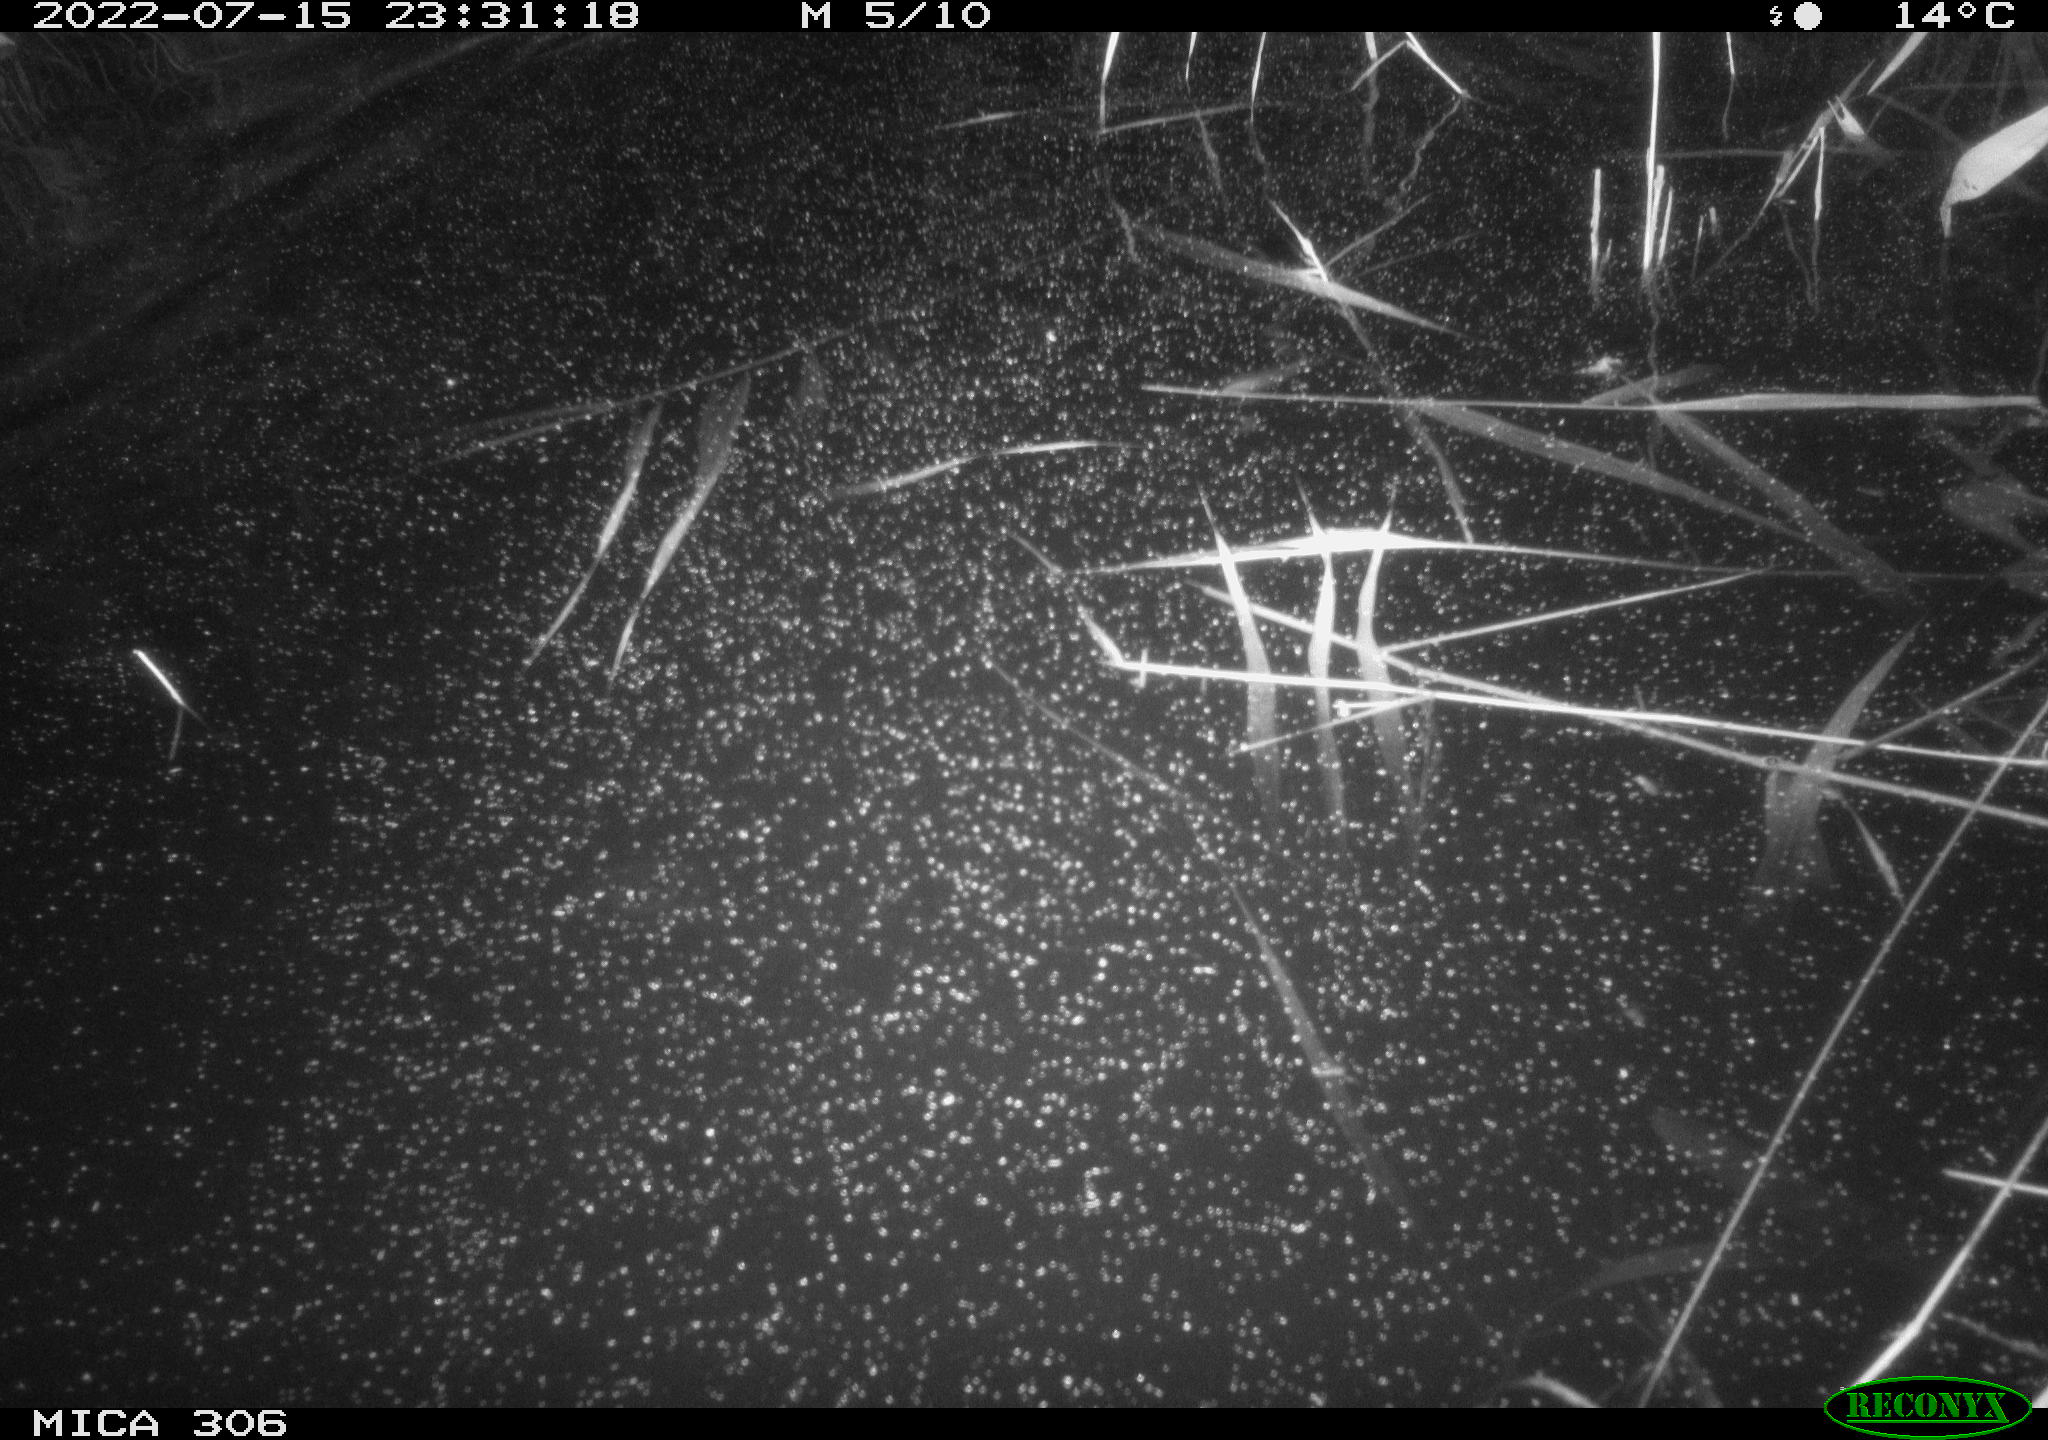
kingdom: Animalia
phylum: Chordata
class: Mammalia
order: Rodentia
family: Cricetidae
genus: Ondatra
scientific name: Ondatra zibethicus
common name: Muskrat
